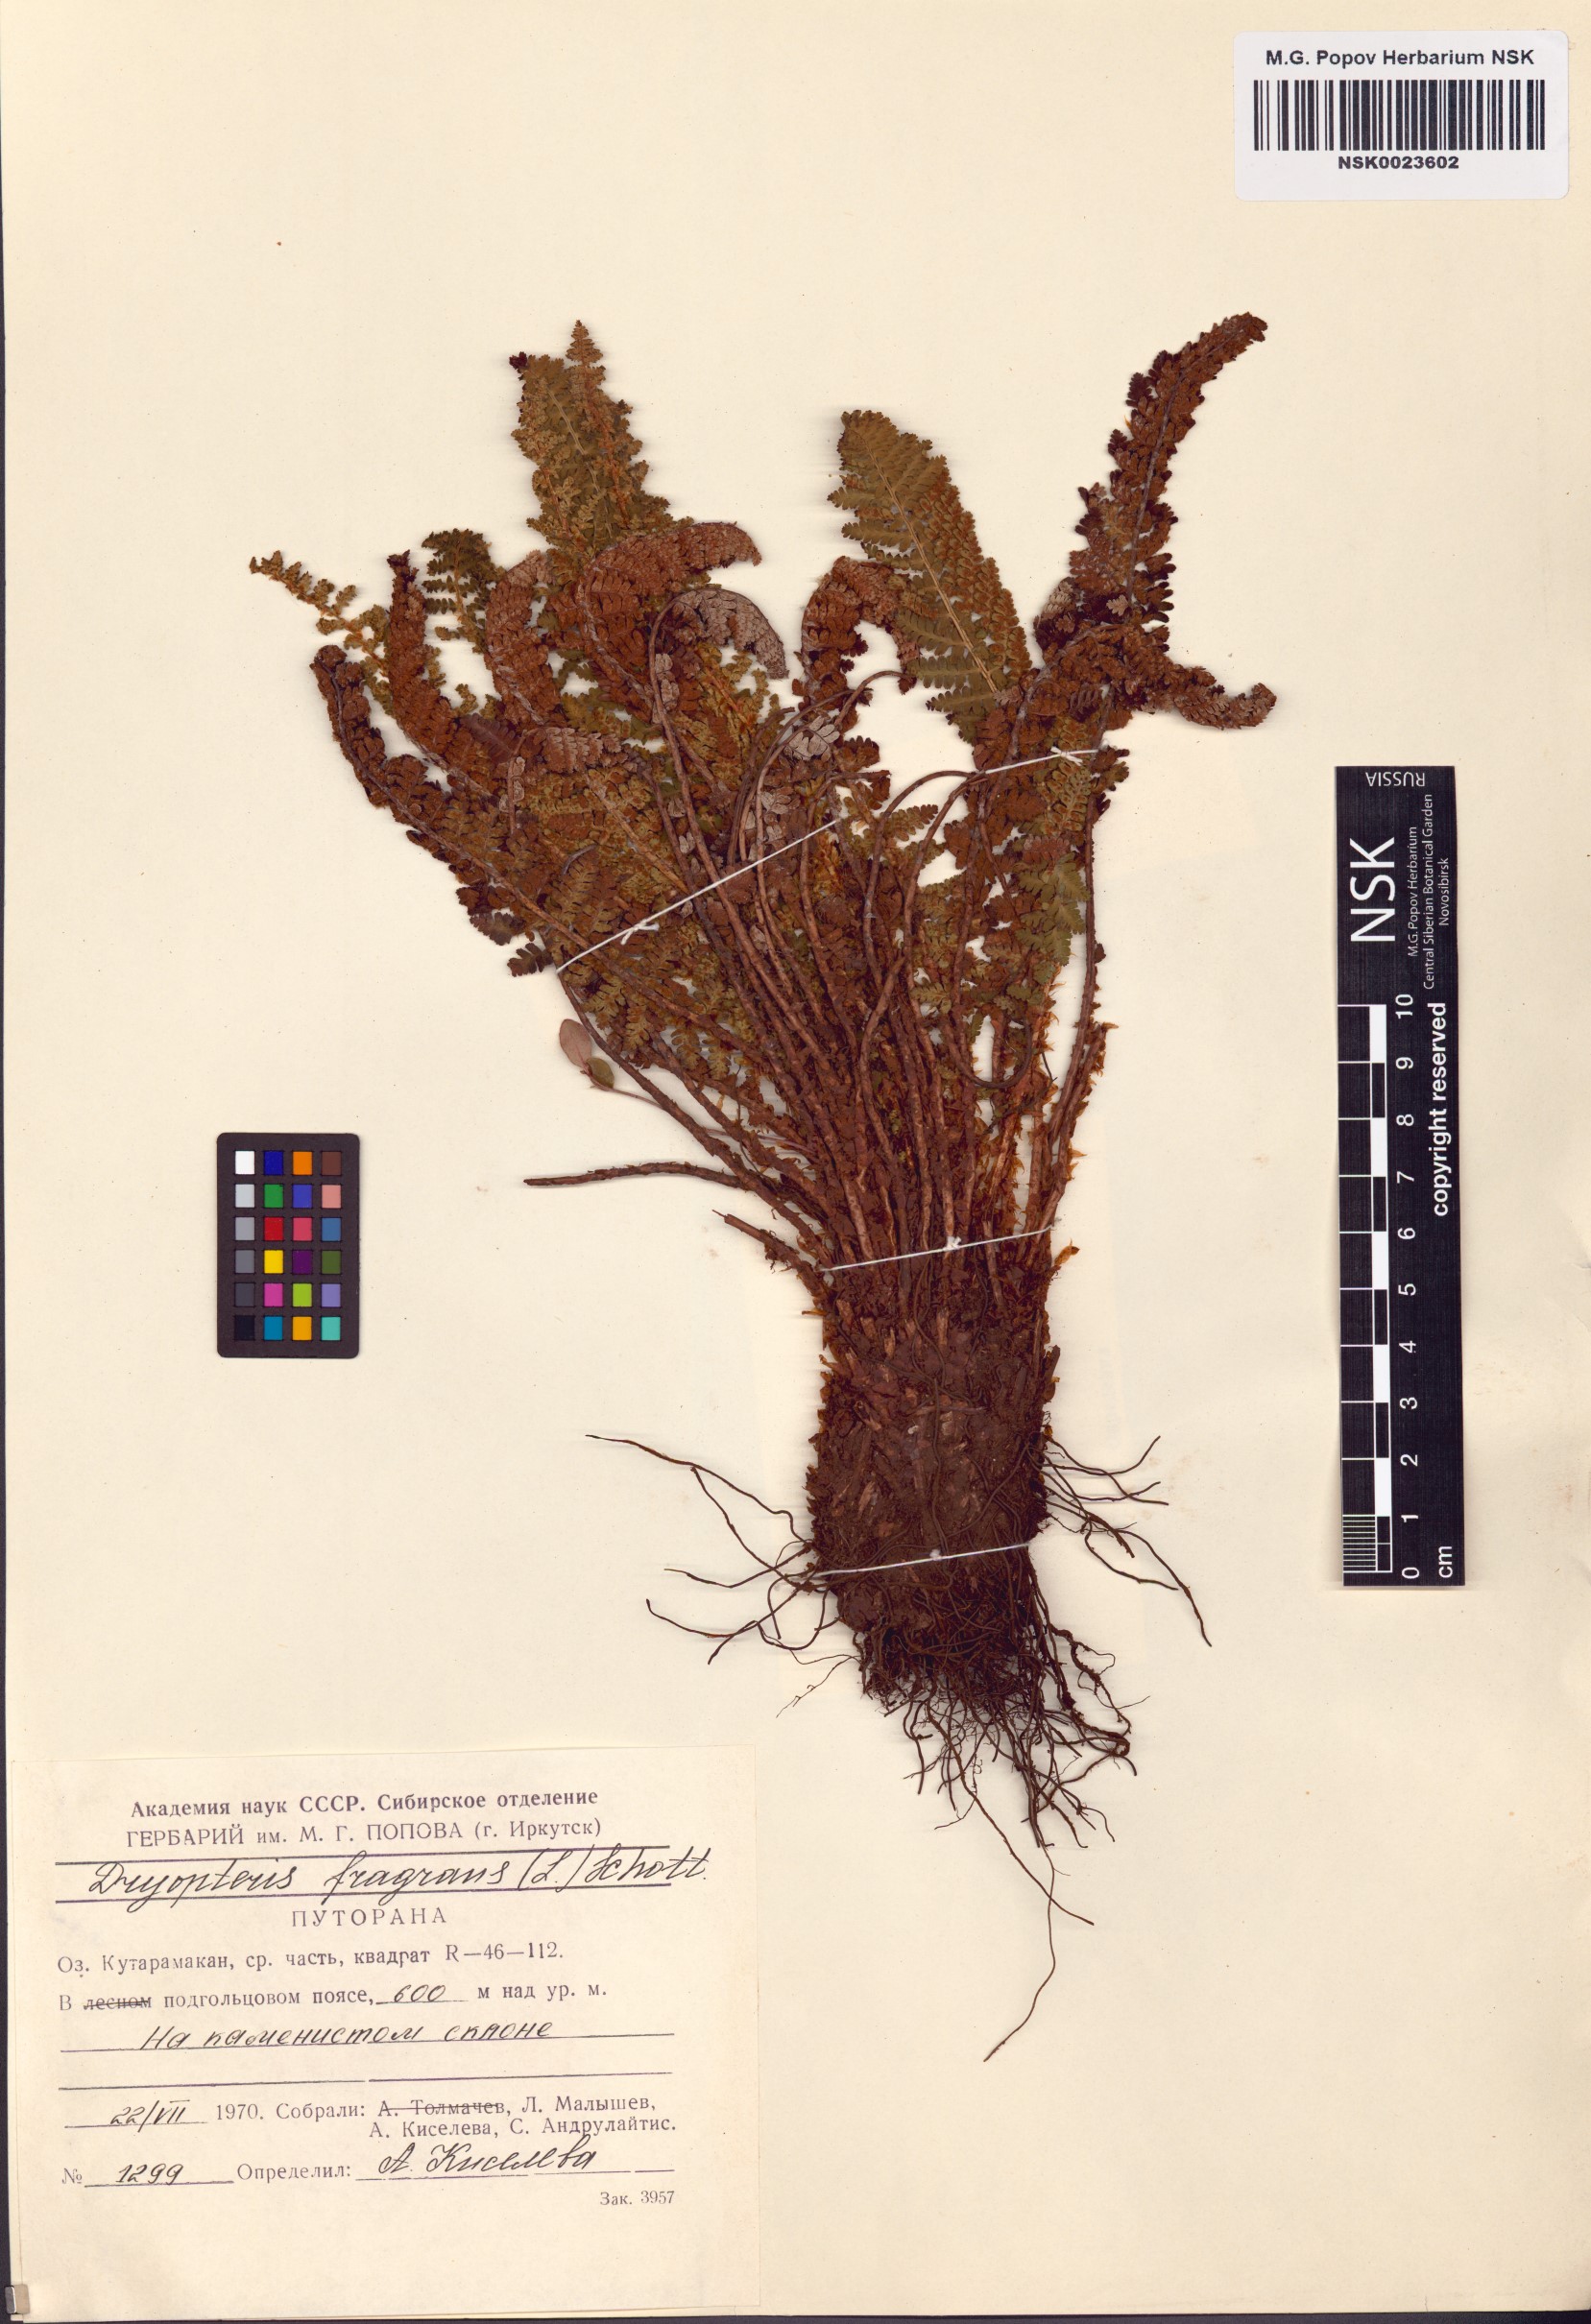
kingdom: Plantae
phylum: Tracheophyta
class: Polypodiopsida
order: Polypodiales
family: Dryopteridaceae
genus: Dryopteris
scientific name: Dryopteris fragrans
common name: Fragrant wood fern
